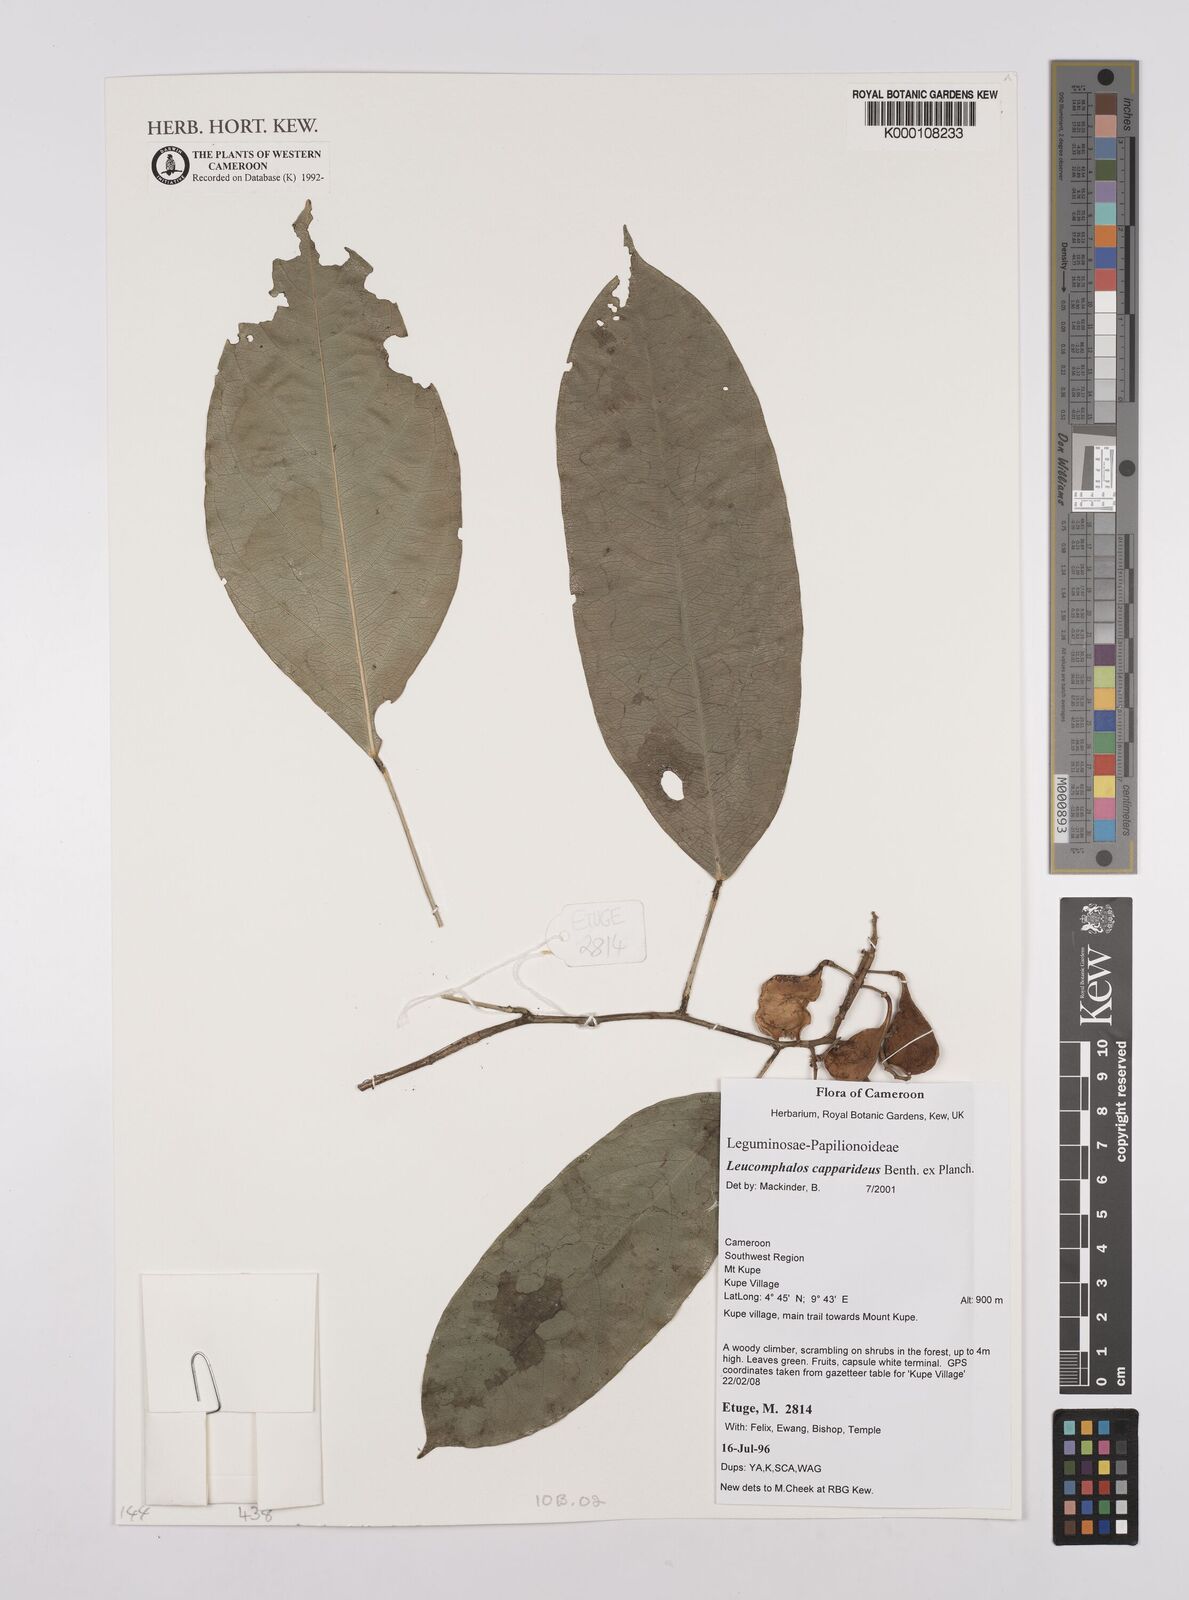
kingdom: Plantae
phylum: Tracheophyta
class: Magnoliopsida
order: Fabales
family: Fabaceae
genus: Leucomphalos
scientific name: Leucomphalos
